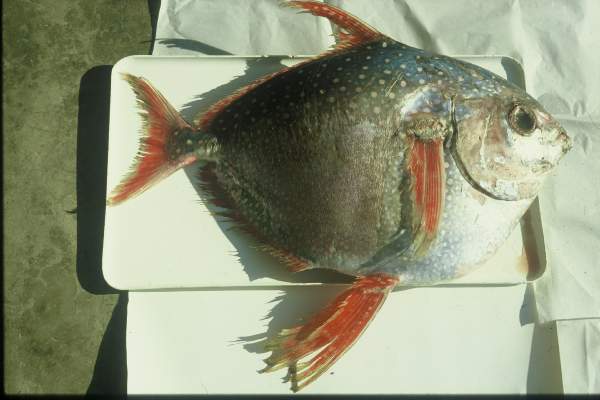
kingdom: Animalia
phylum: Chordata
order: Lampriformes
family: Lampridae
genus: Lampris
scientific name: Lampris guttatus
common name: Opah
